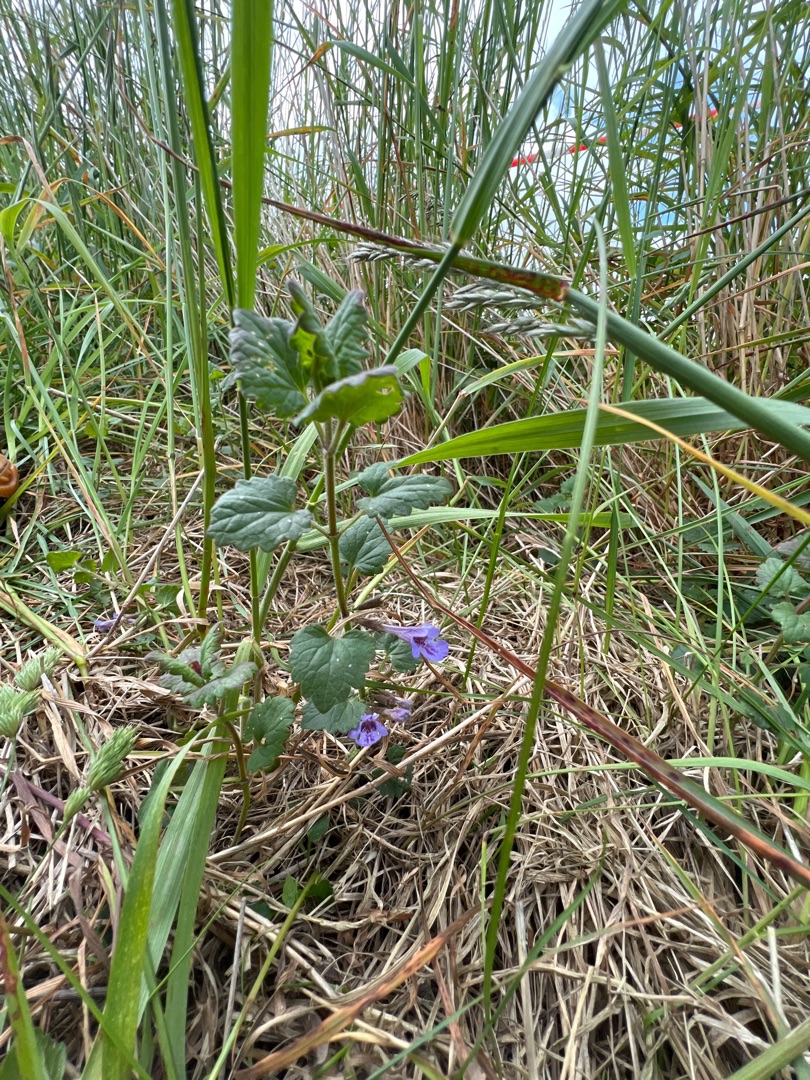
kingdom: Plantae
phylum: Tracheophyta
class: Magnoliopsida
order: Lamiales
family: Lamiaceae
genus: Glechoma
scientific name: Glechoma hederacea
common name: Korsknap
